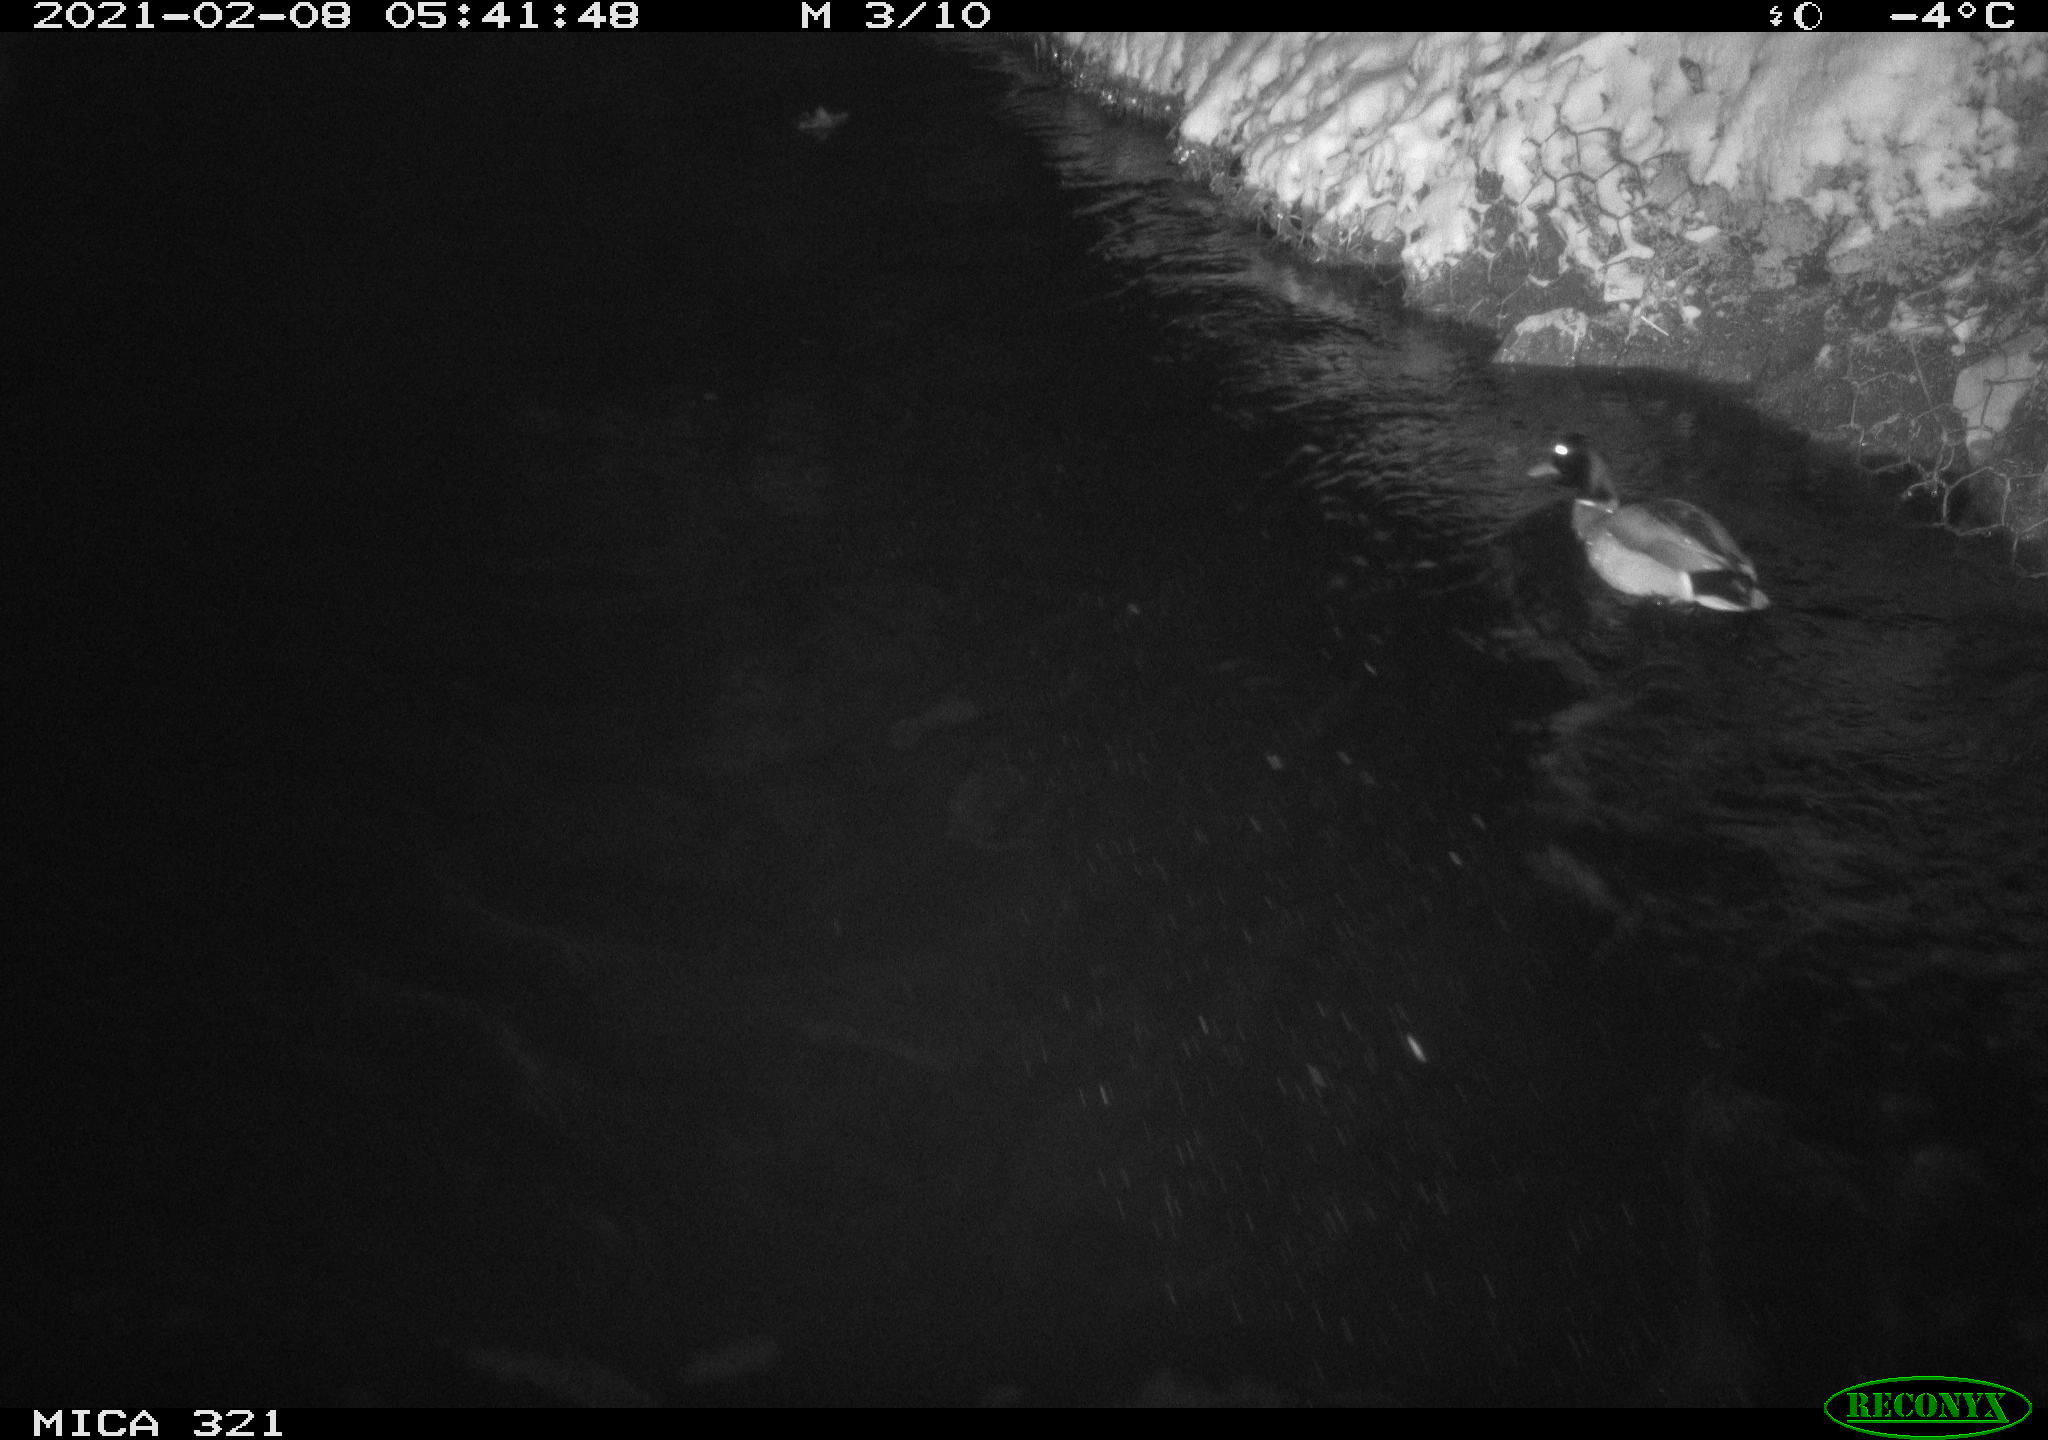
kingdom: Animalia
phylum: Chordata
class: Aves
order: Anseriformes
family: Anatidae
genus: Anas
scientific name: Anas platyrhynchos
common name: Mallard
